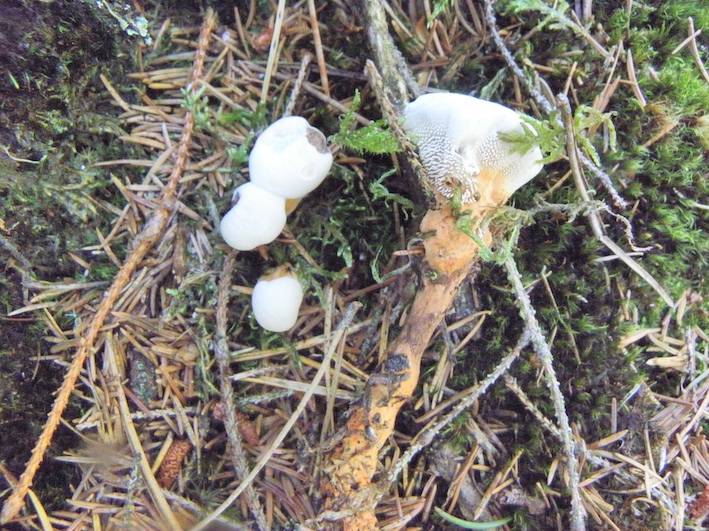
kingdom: Fungi
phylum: Basidiomycota
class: Agaricomycetes
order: Thelephorales
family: Bankeraceae
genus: Hydnellum
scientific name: Hydnellum aurantiacum
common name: orange korkpigsvamp
